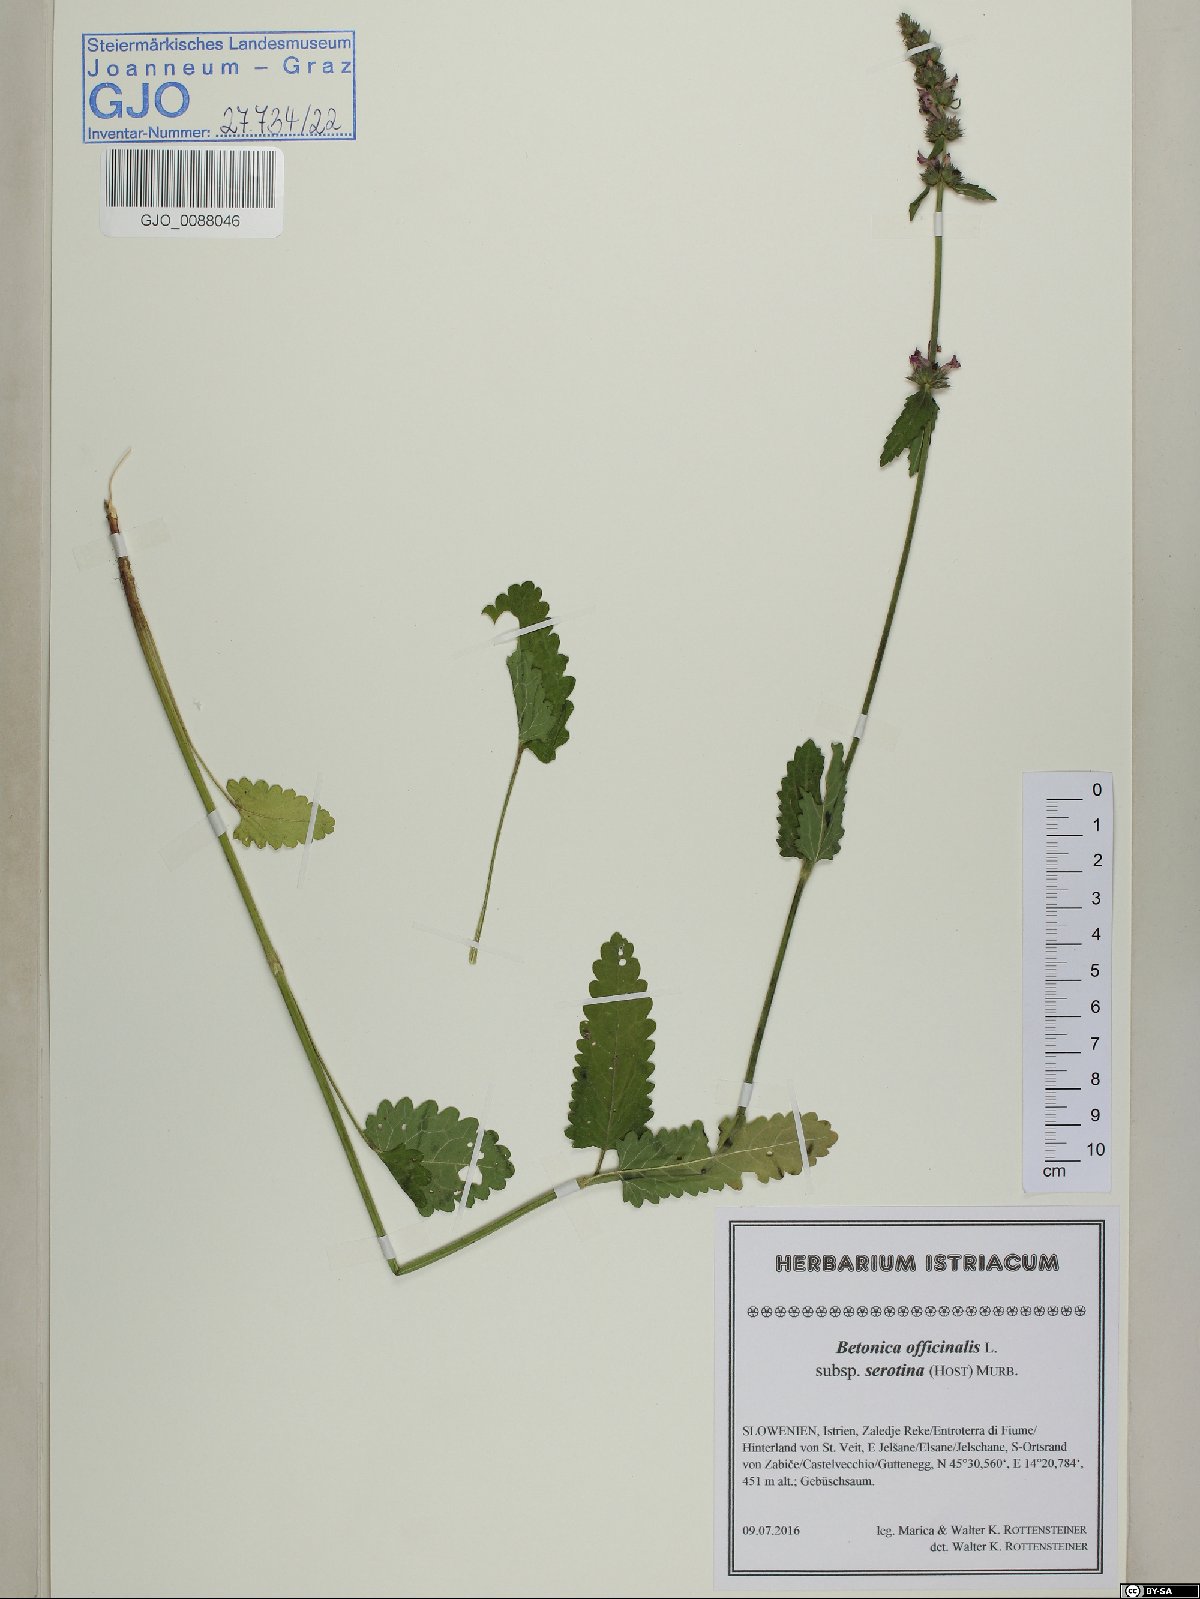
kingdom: Plantae
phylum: Tracheophyta
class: Magnoliopsida
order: Lamiales
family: Lamiaceae
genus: Betonica
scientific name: Betonica officinalis
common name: Bishop's-wort
